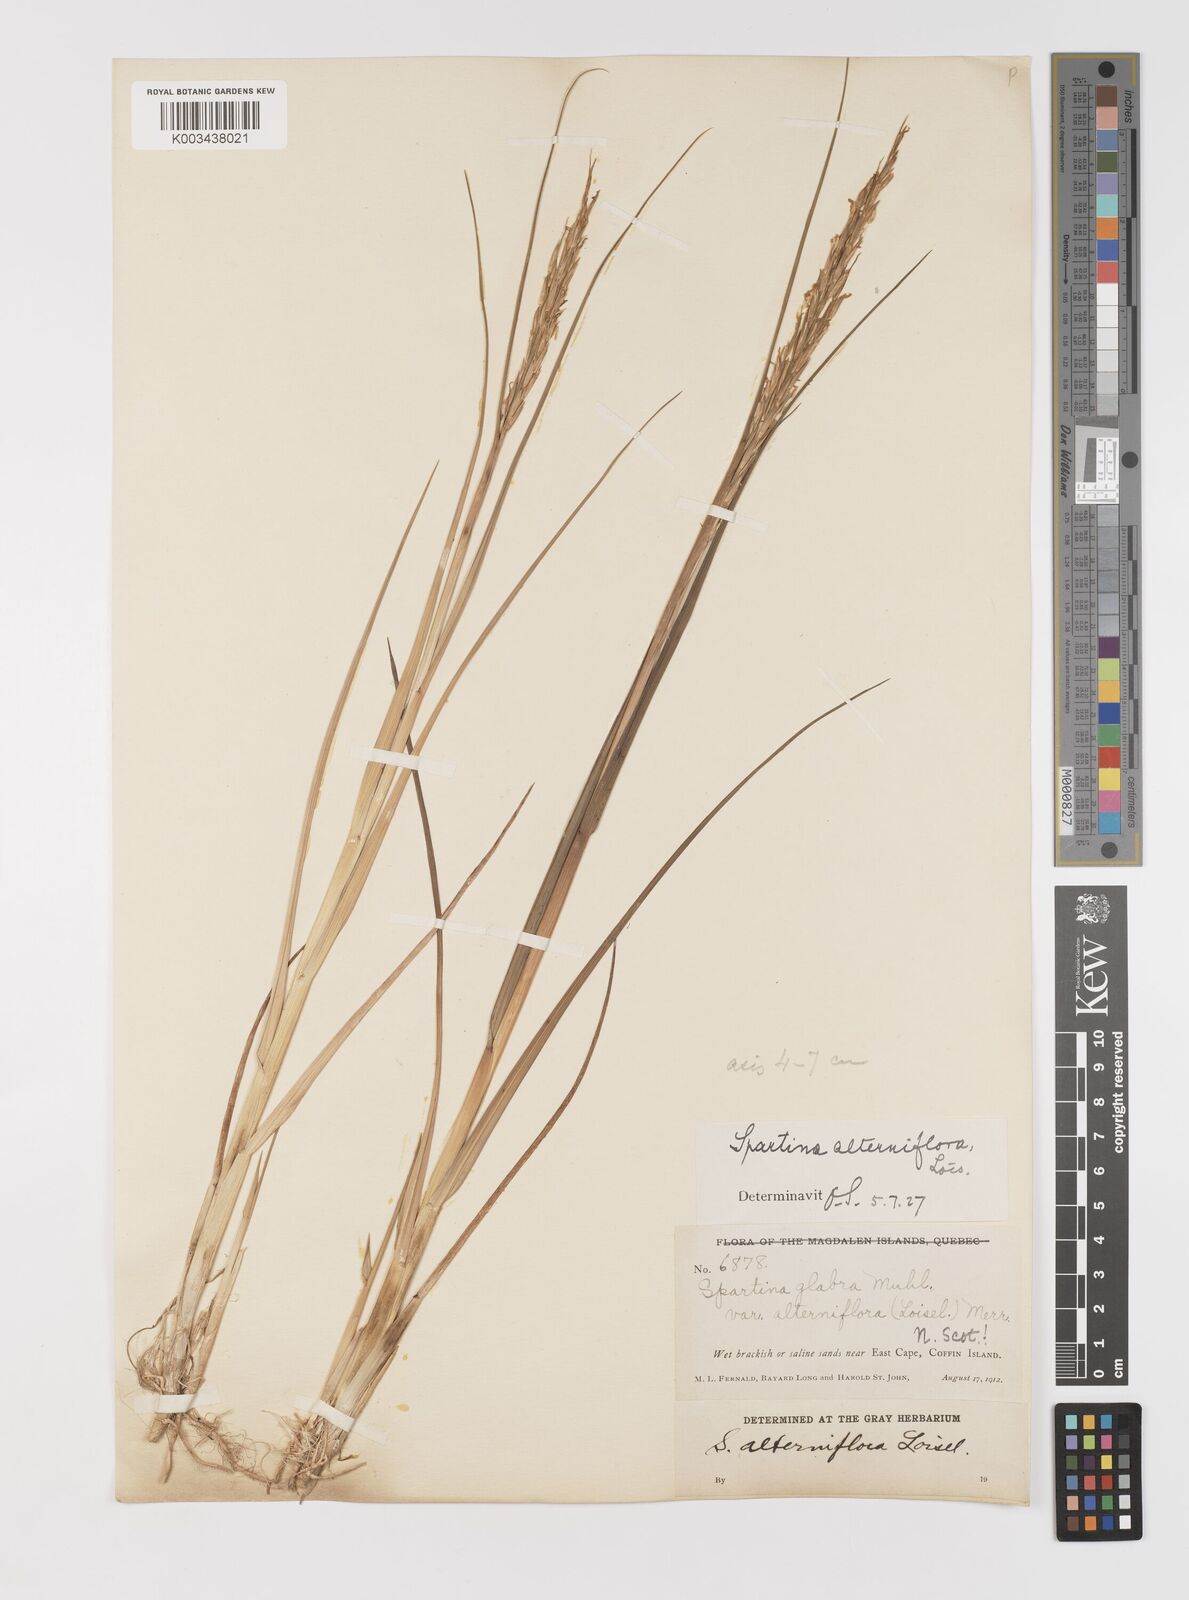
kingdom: Animalia
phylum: Mollusca
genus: Spartina
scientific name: Spartina
